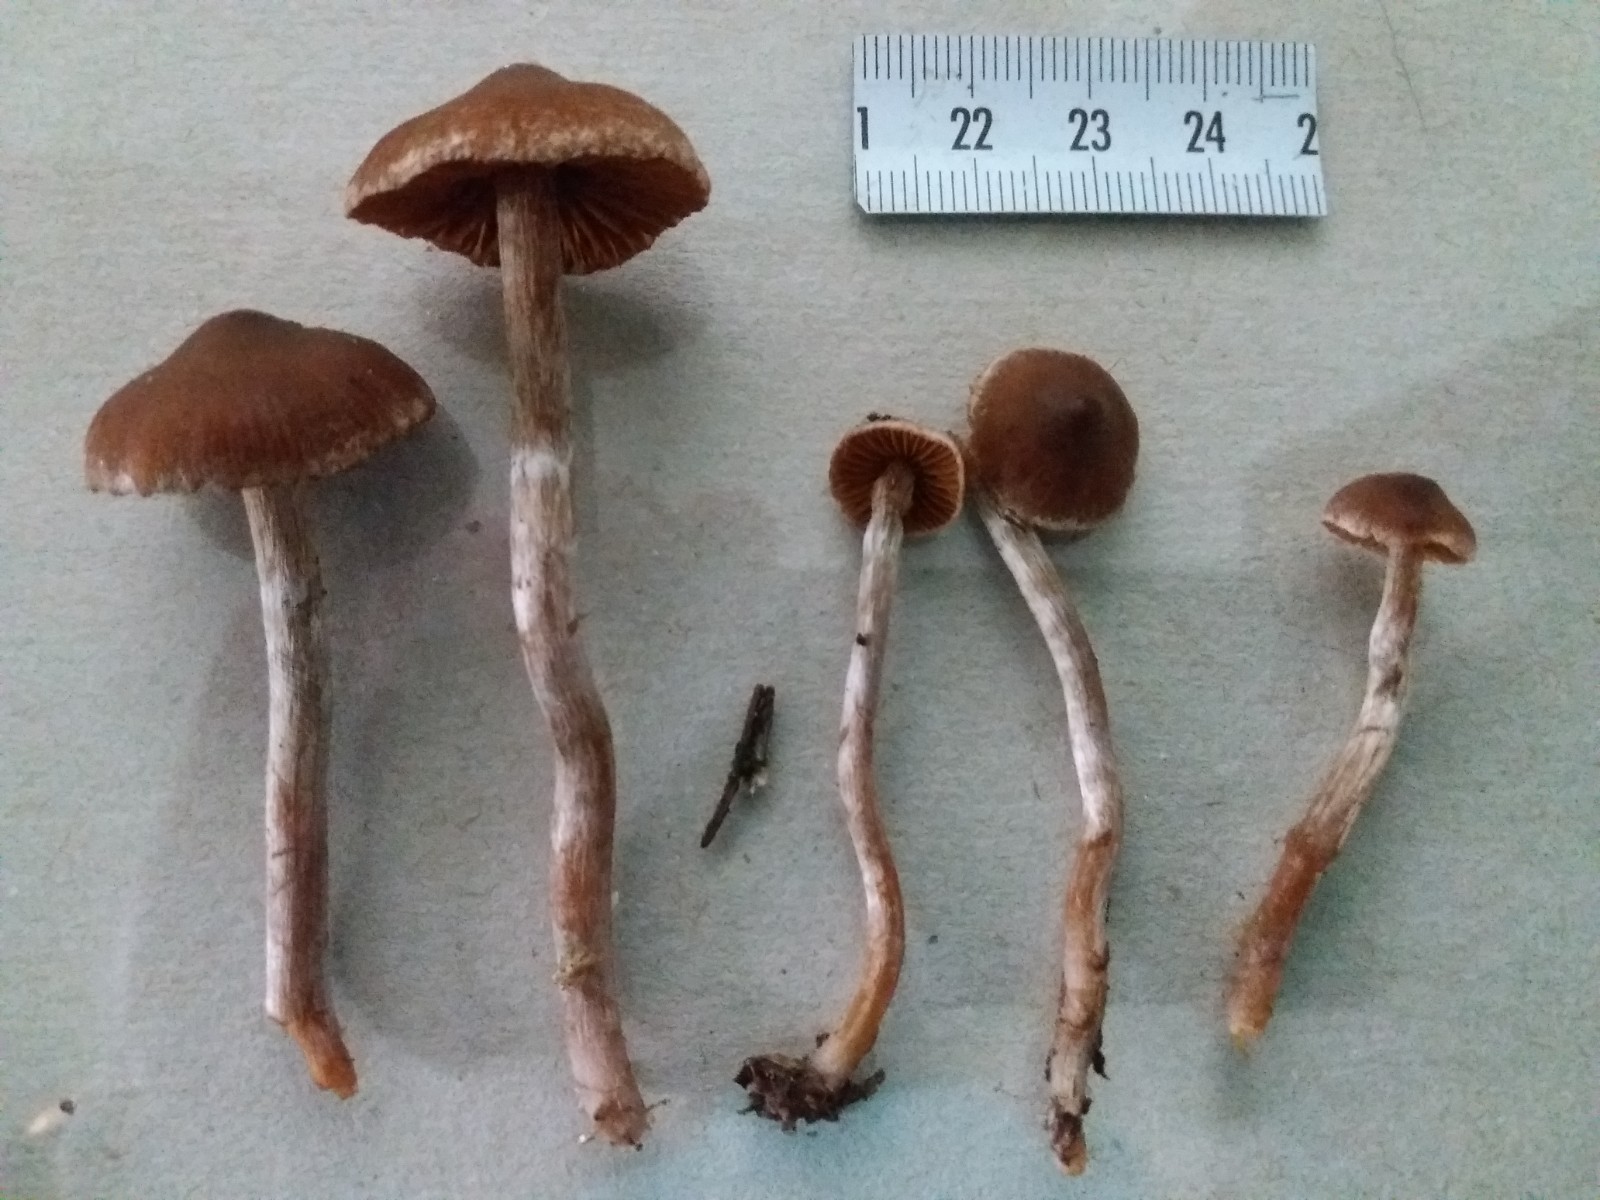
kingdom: Fungi
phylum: Basidiomycota
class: Agaricomycetes
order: Agaricales
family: Cortinariaceae
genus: Cortinarius
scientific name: Cortinarius
